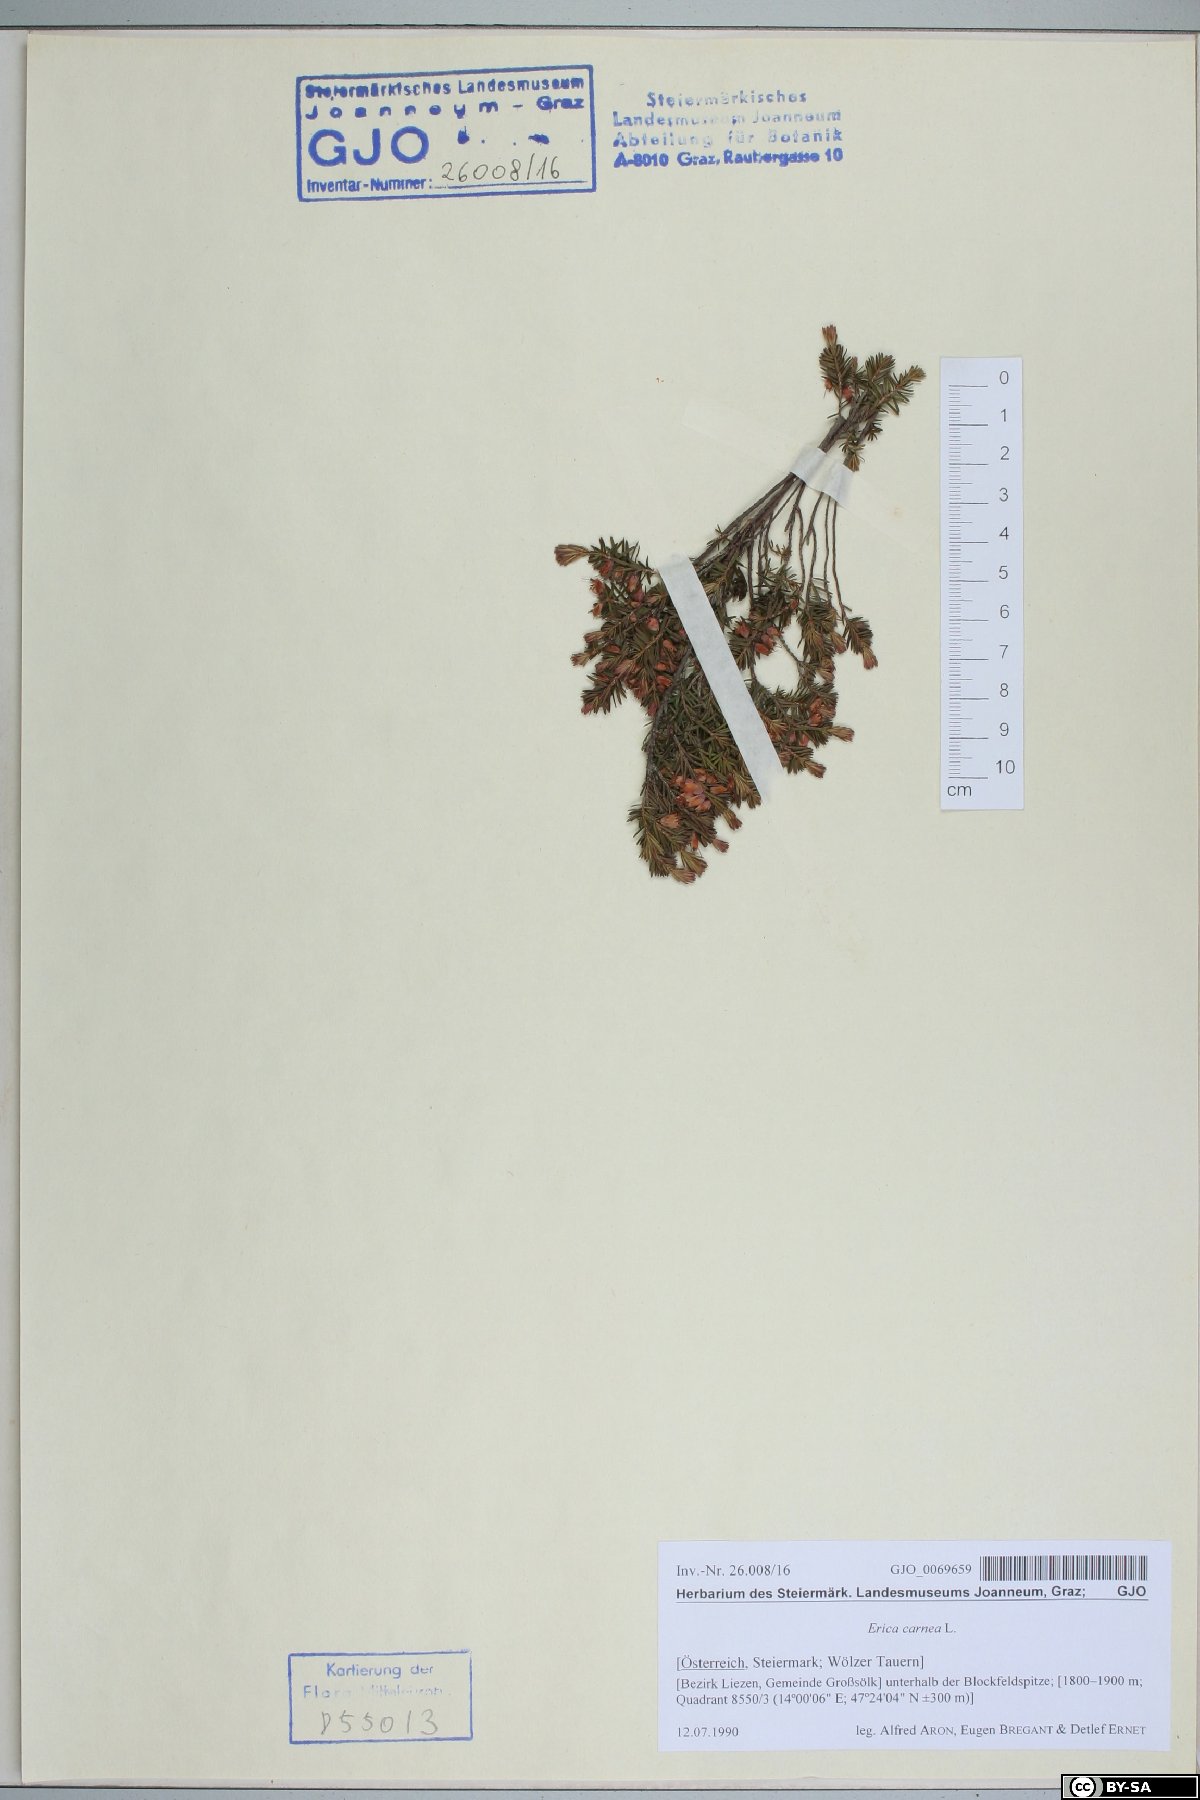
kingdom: Plantae
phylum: Tracheophyta
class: Magnoliopsida
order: Ericales
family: Ericaceae
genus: Erica
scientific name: Erica carnea
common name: Winter heath
